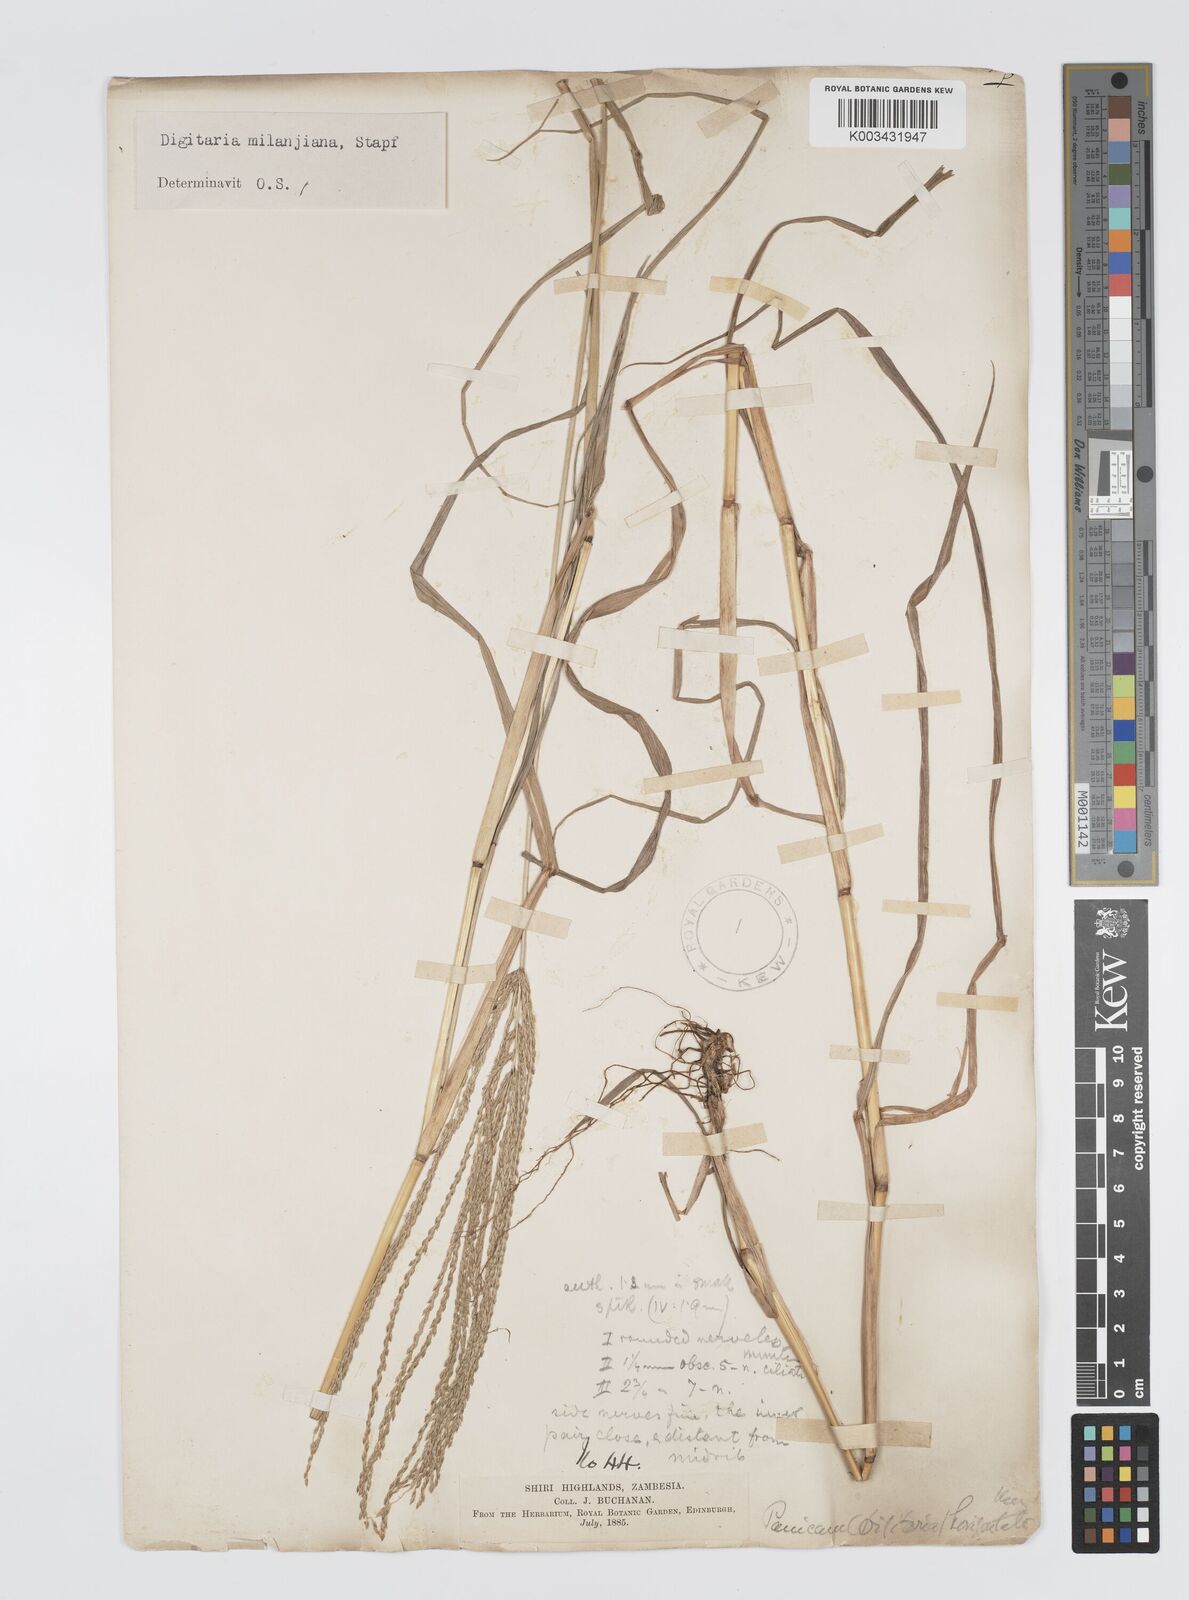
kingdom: Plantae
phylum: Tracheophyta
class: Liliopsida
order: Poales
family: Poaceae
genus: Digitaria
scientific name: Digitaria milanjiana
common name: Madagascar crabgrass
